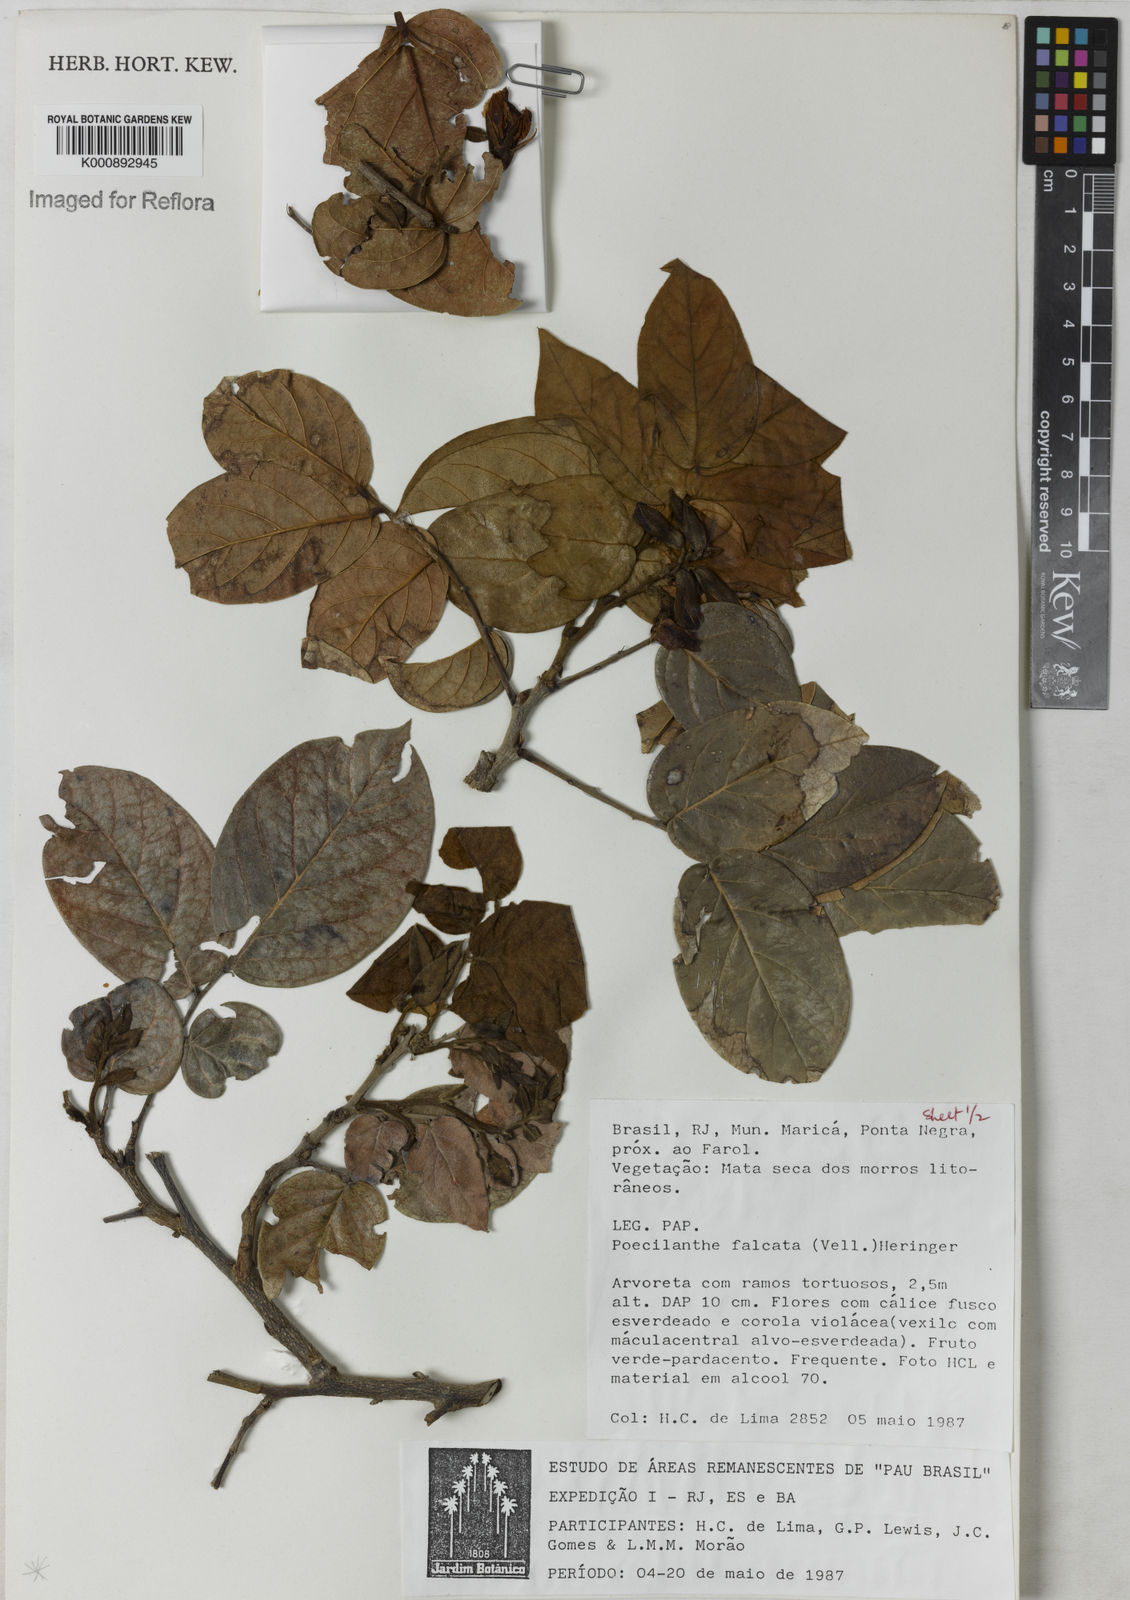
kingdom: Plantae
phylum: Tracheophyta
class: Magnoliopsida
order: Fabales
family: Fabaceae
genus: Poecilanthe
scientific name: Poecilanthe falcata
